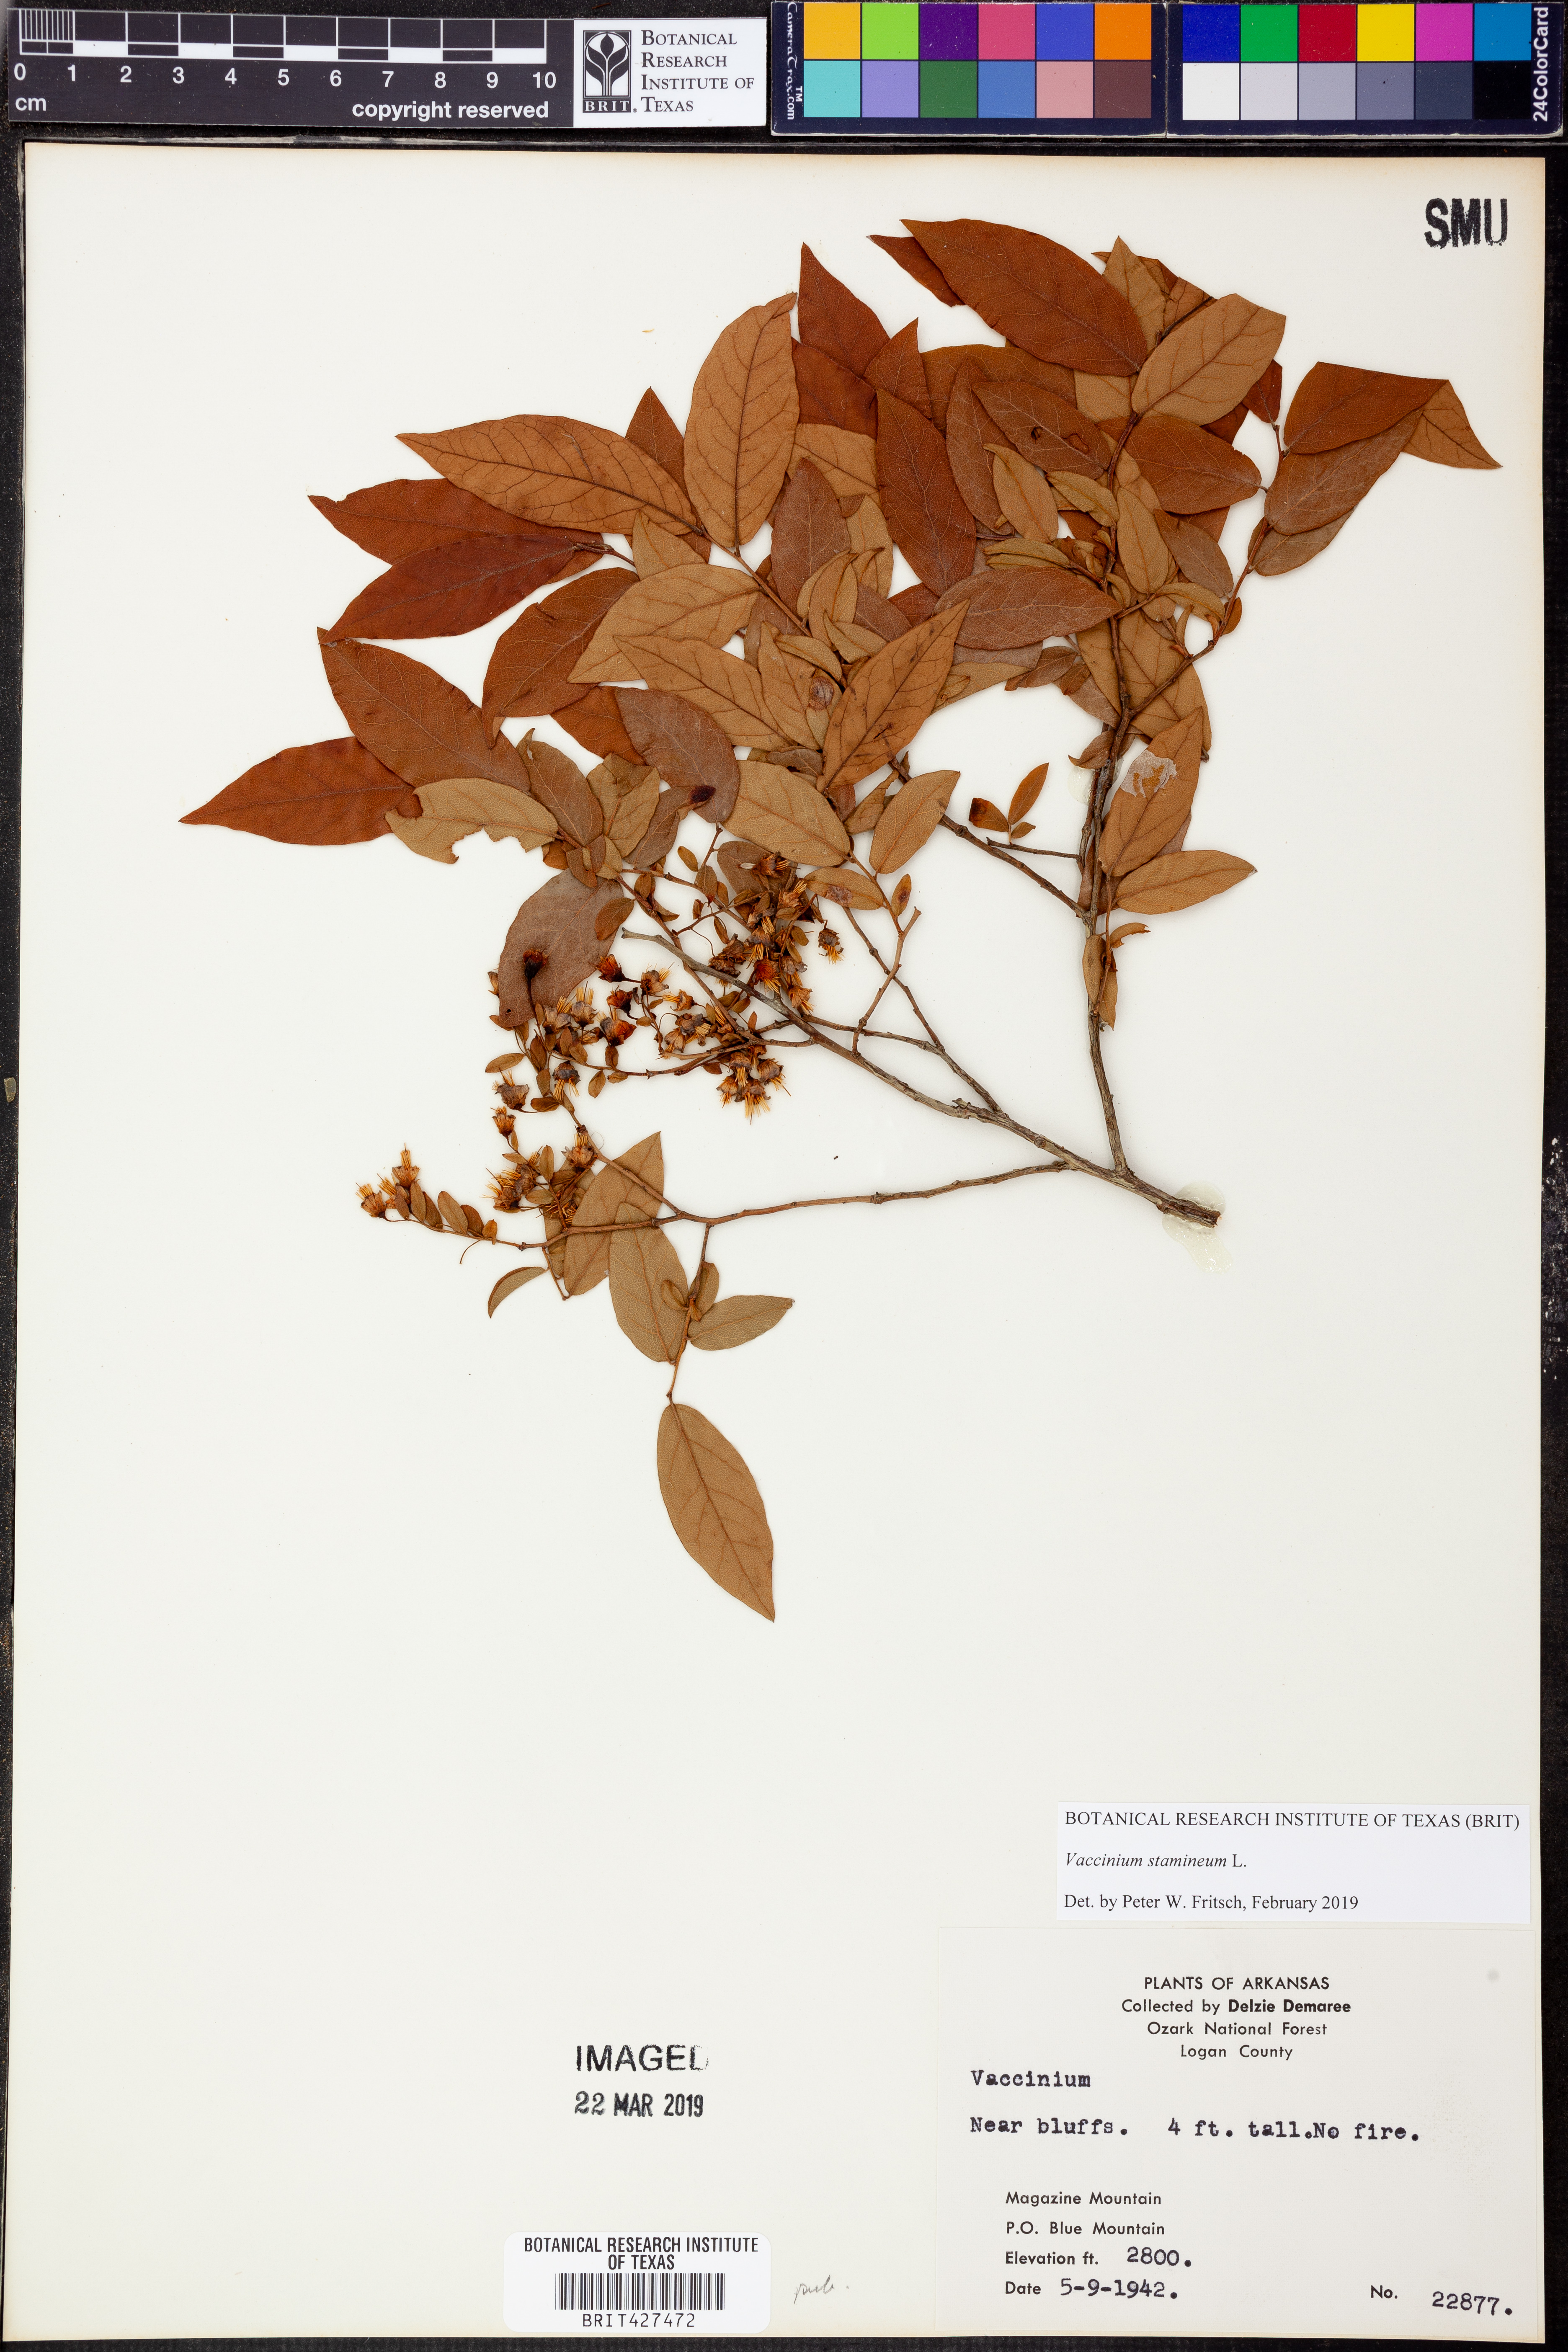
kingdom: Plantae
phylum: Tracheophyta
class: Magnoliopsida
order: Ericales
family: Ericaceae
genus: Vaccinium
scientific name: Vaccinium stamineum
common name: Deerberry
